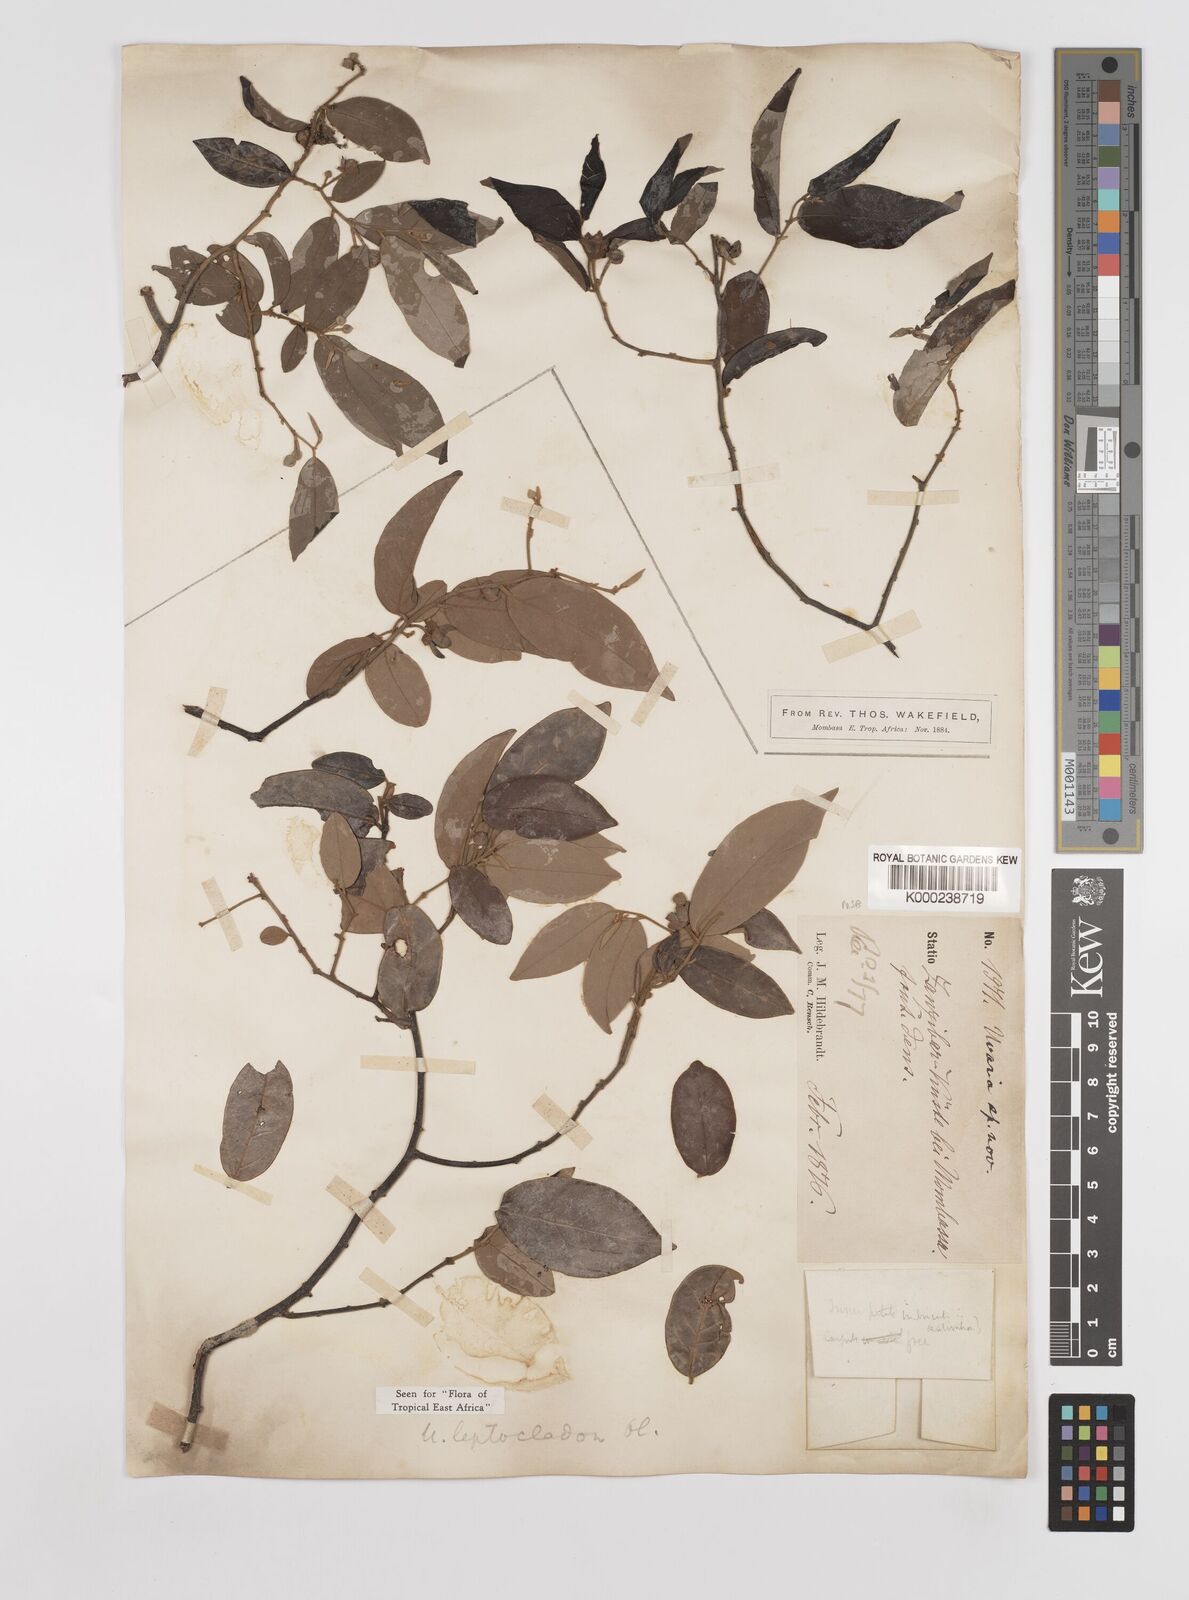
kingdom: Plantae
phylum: Tracheophyta
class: Magnoliopsida
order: Magnoliales
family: Annonaceae
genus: Uvaria
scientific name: Uvaria leptocladon
